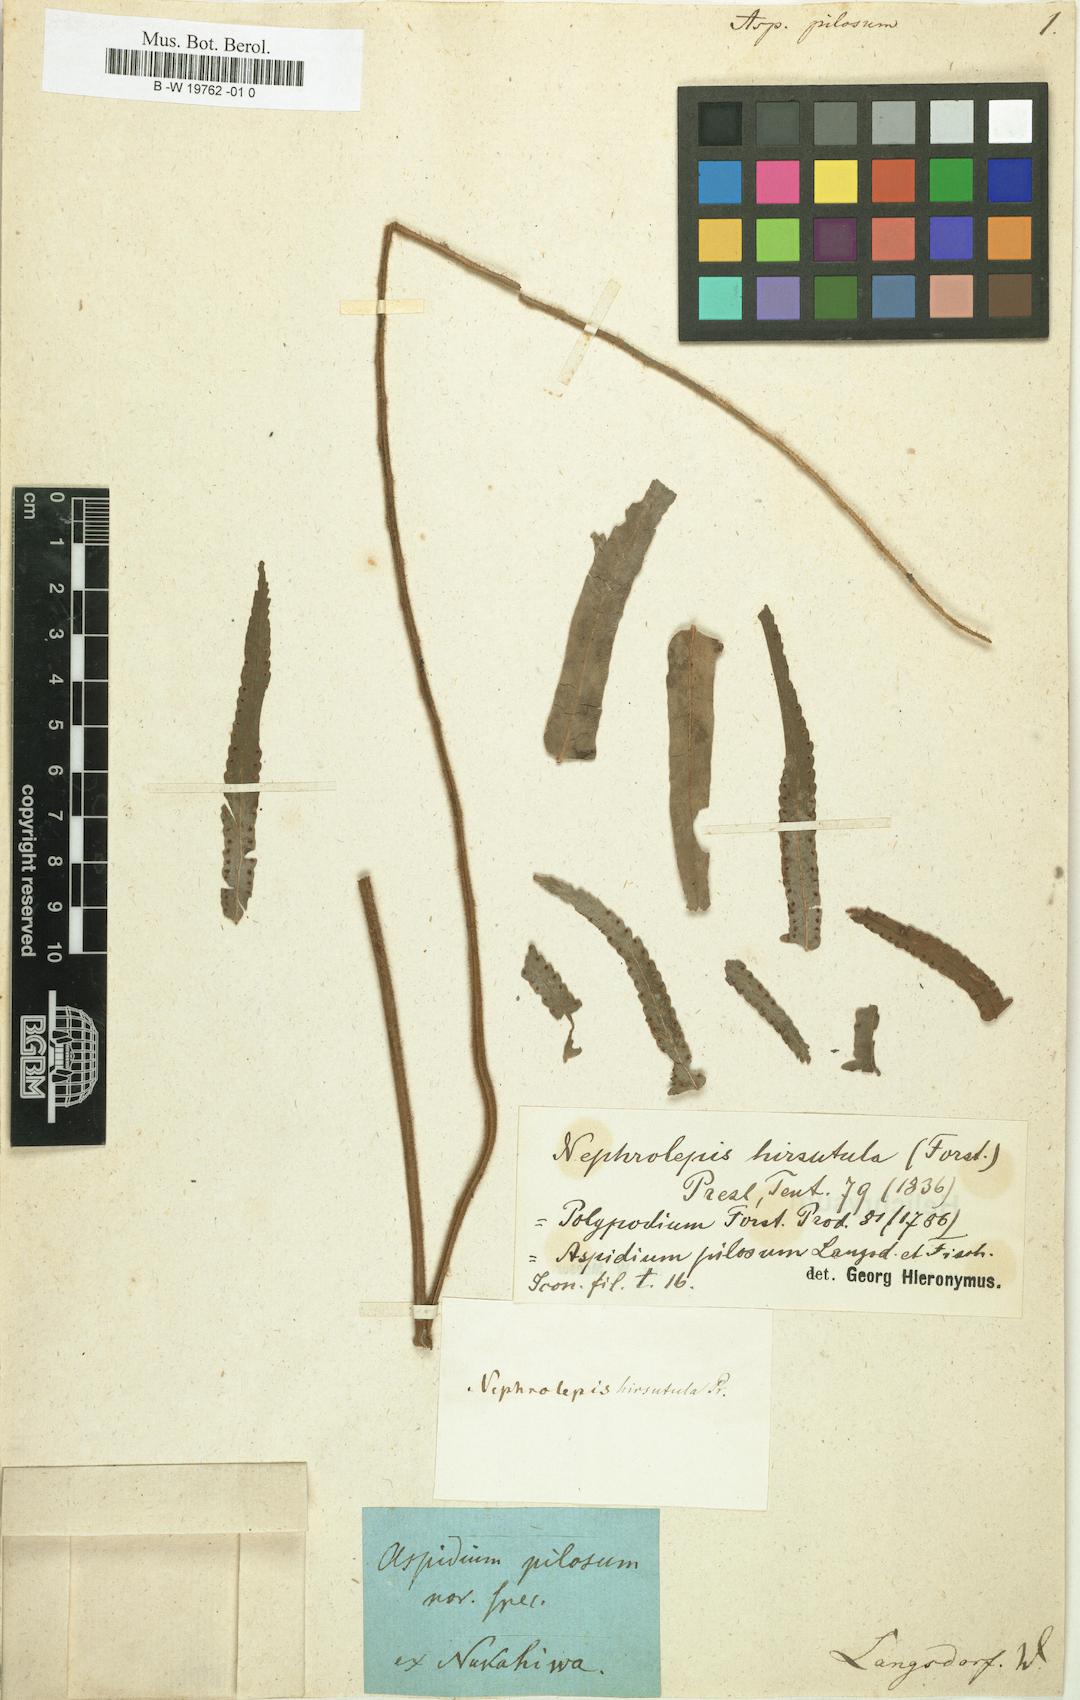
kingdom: Plantae
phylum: Tracheophyta
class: Polypodiopsida
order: Polypodiales
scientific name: Polypodiales
